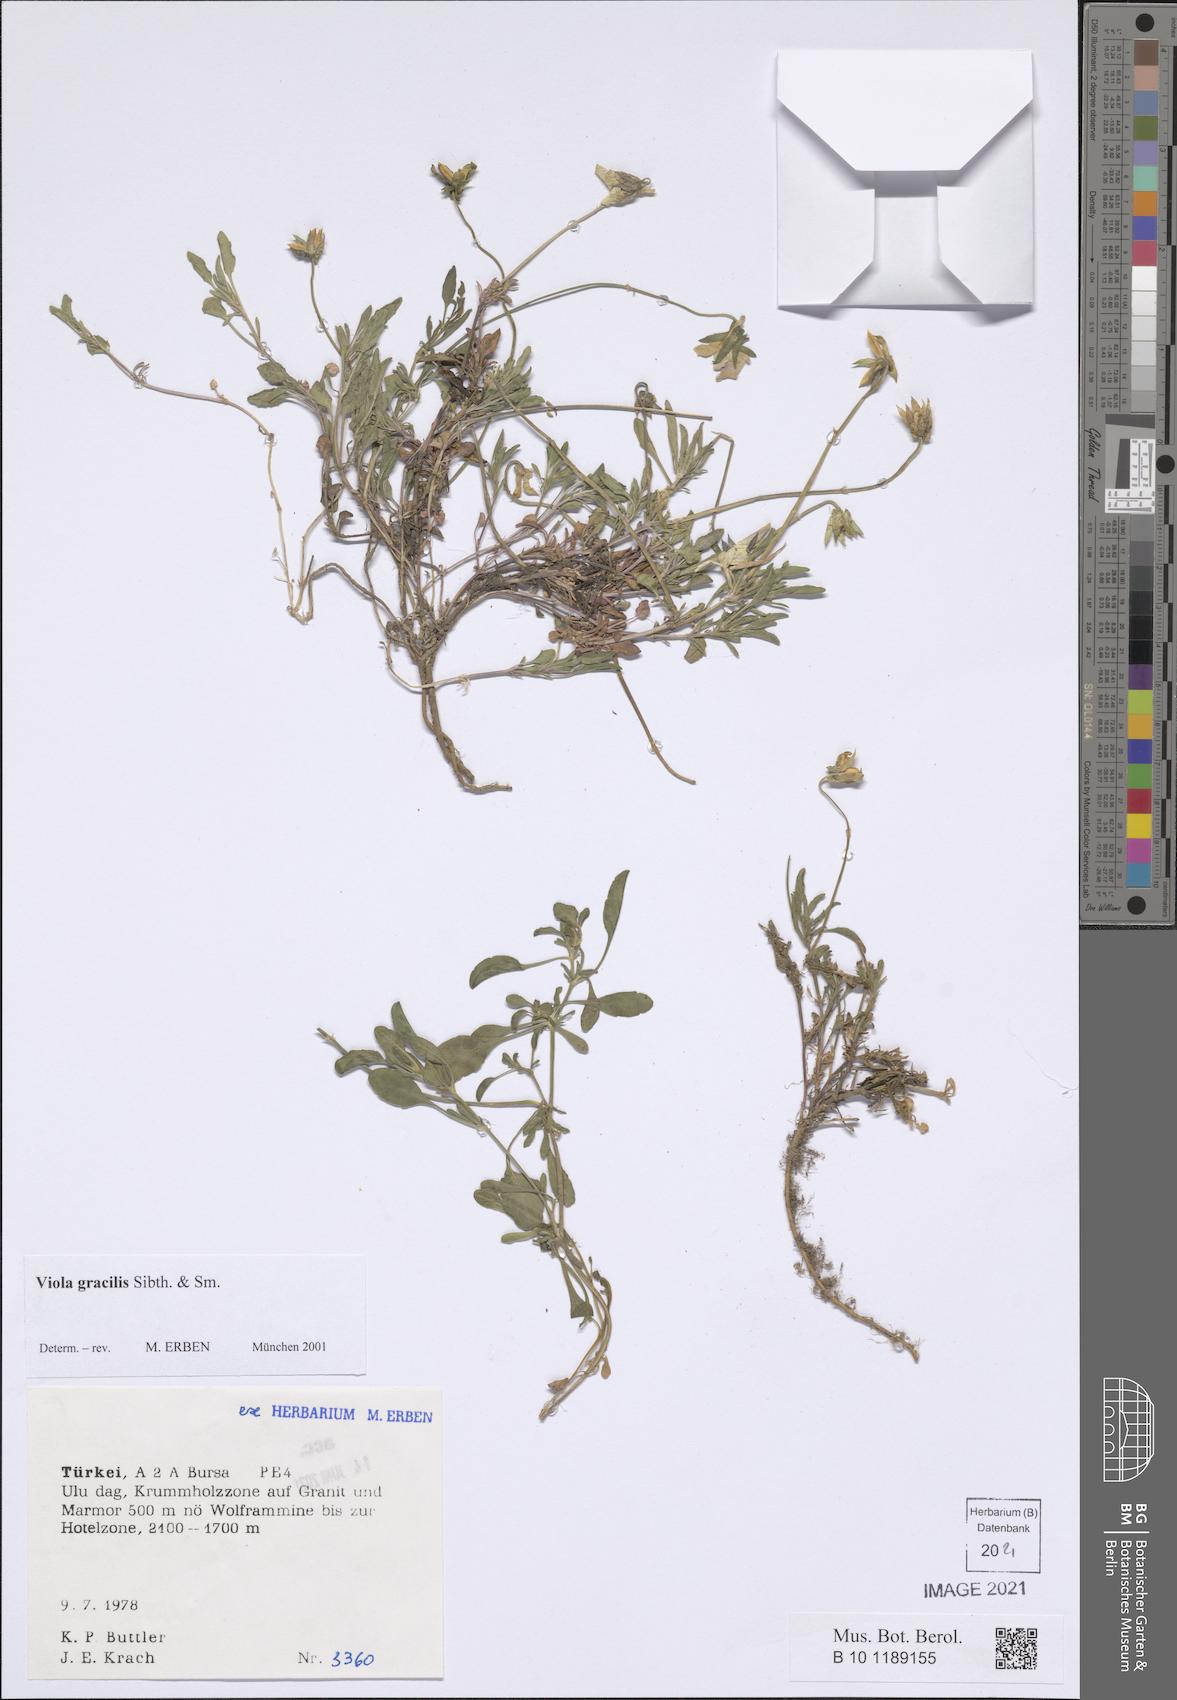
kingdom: Plantae
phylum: Tracheophyta
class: Magnoliopsida
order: Malpighiales
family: Violaceae
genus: Viola
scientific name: Viola gracilis
